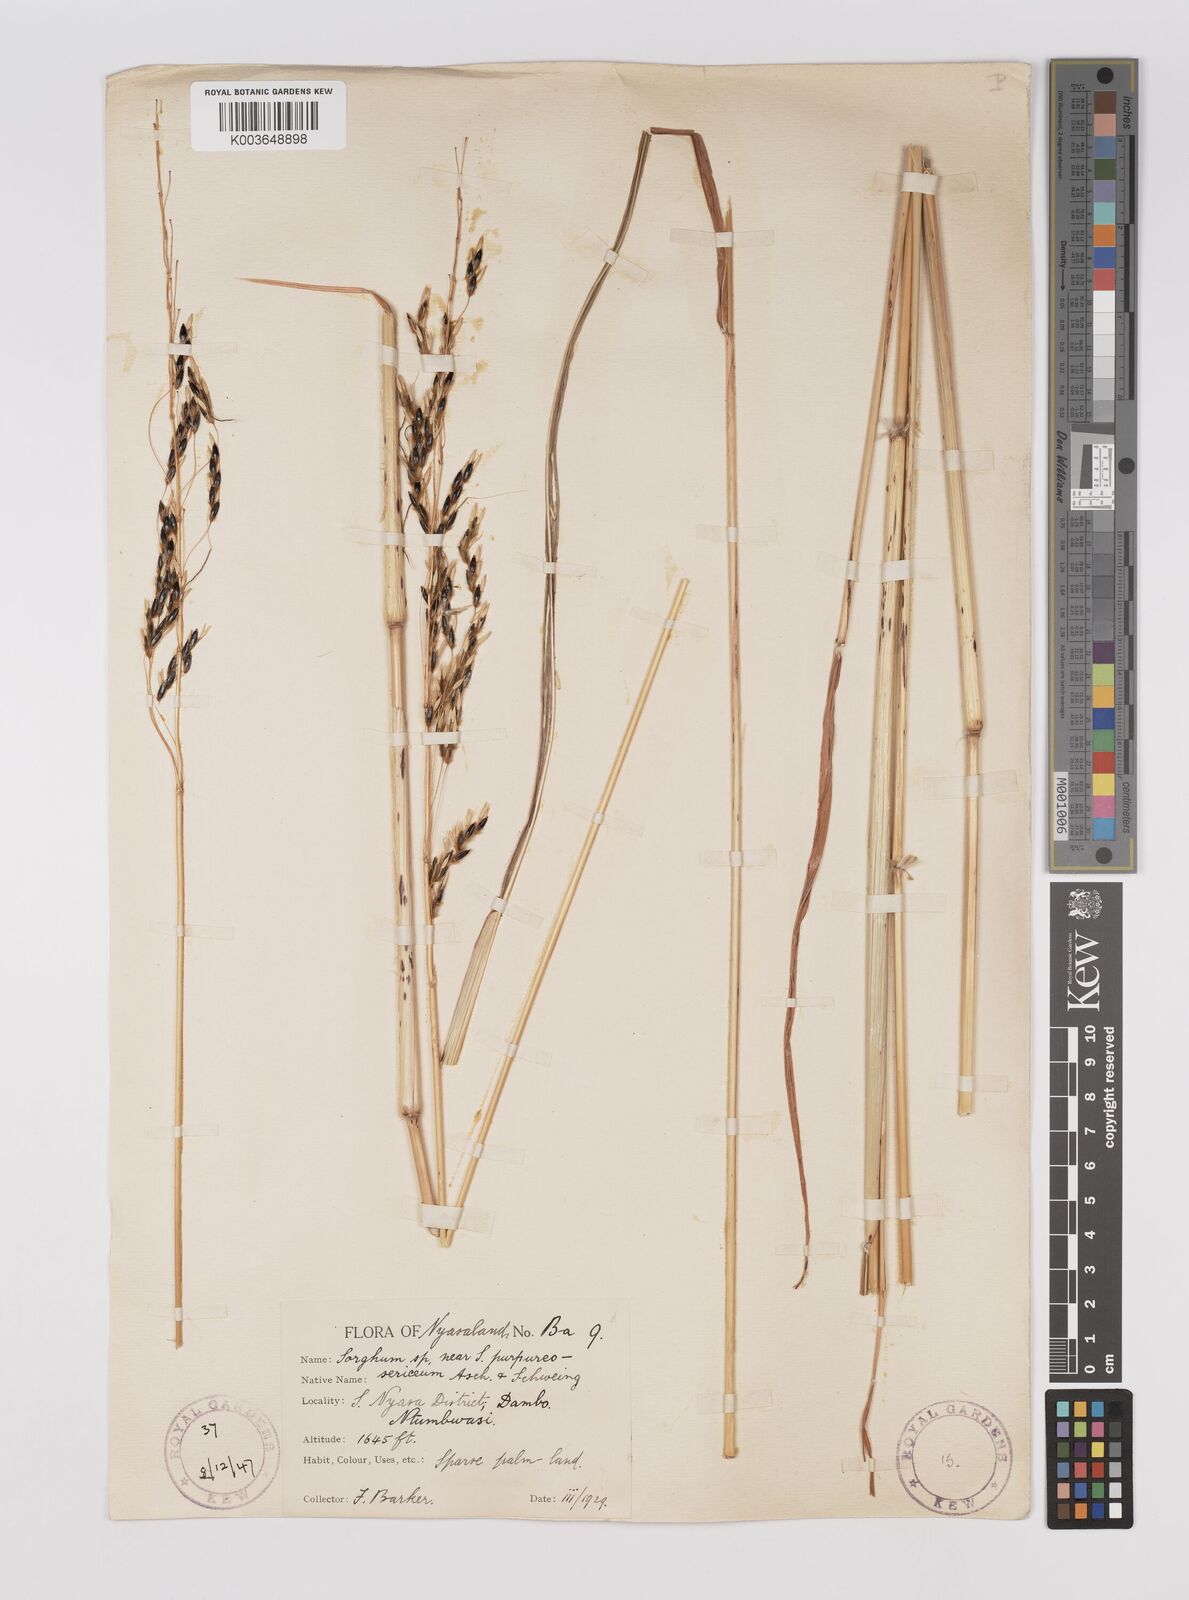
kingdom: Plantae
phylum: Tracheophyta
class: Liliopsida
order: Poales
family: Poaceae
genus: Sarga
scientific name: Sarga versicolor
